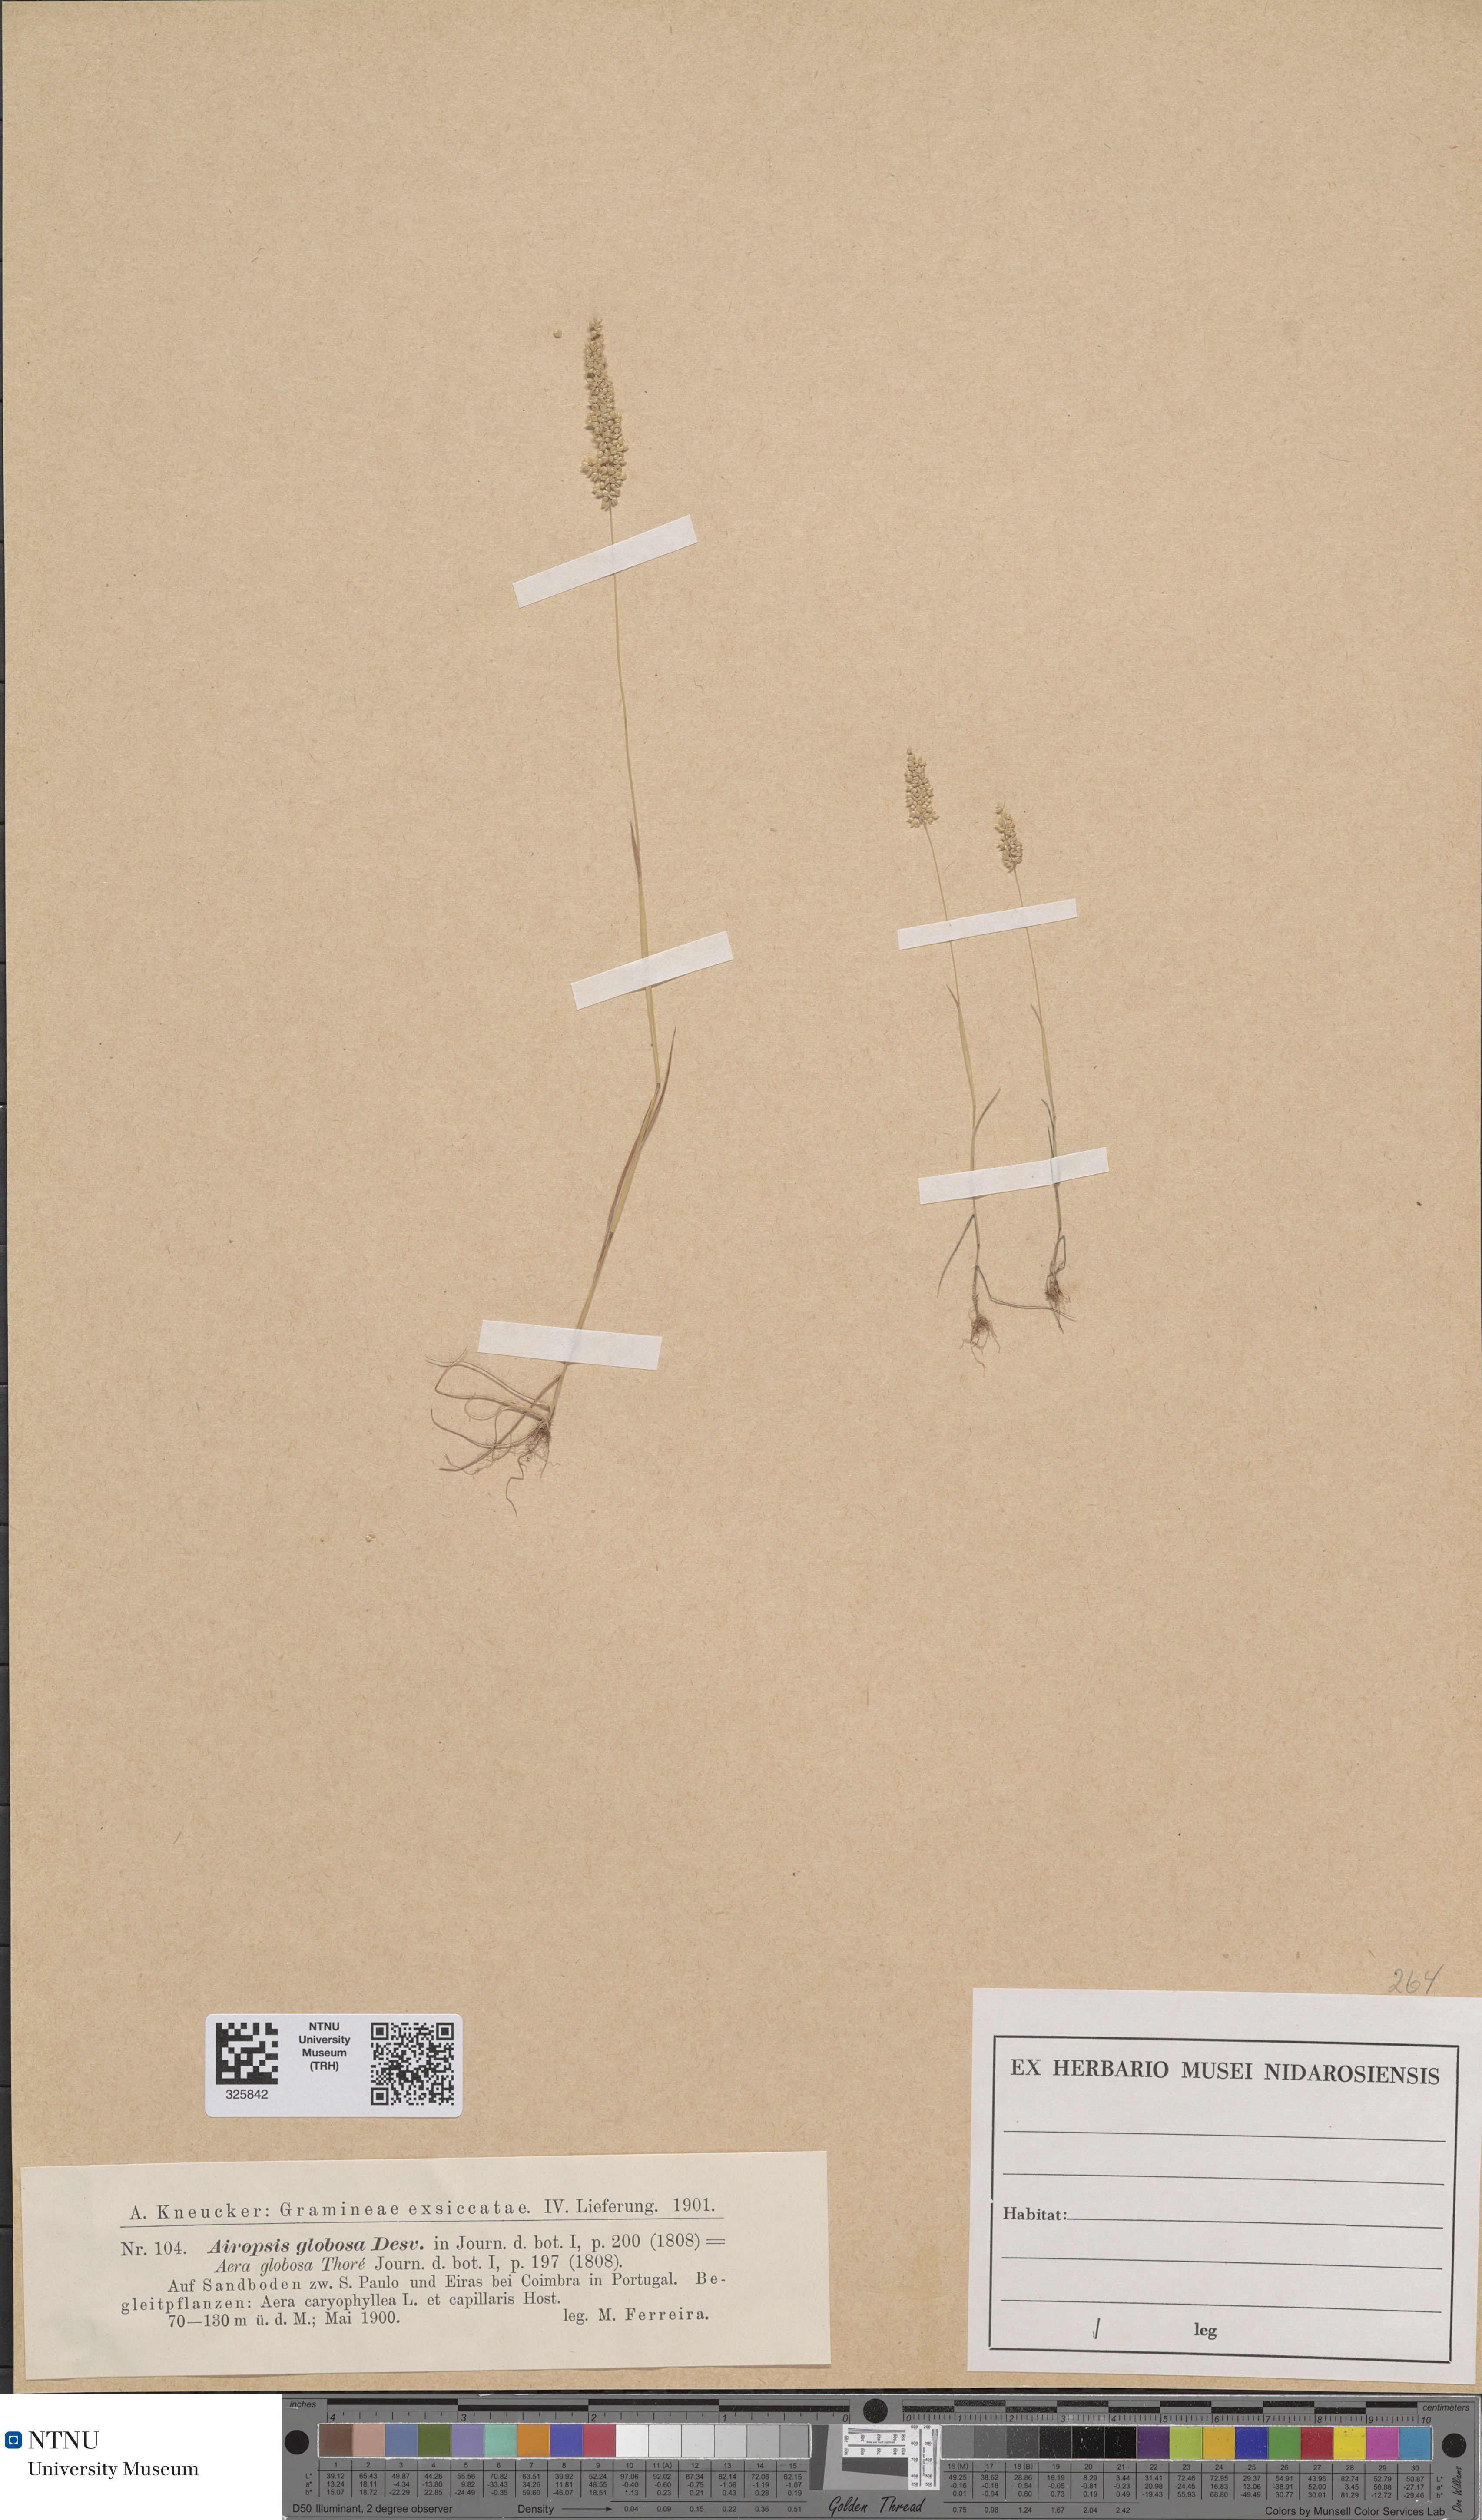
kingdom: Plantae
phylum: Tracheophyta
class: Liliopsida
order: Poales
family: Poaceae
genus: Airopsis
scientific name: Airopsis tenella
